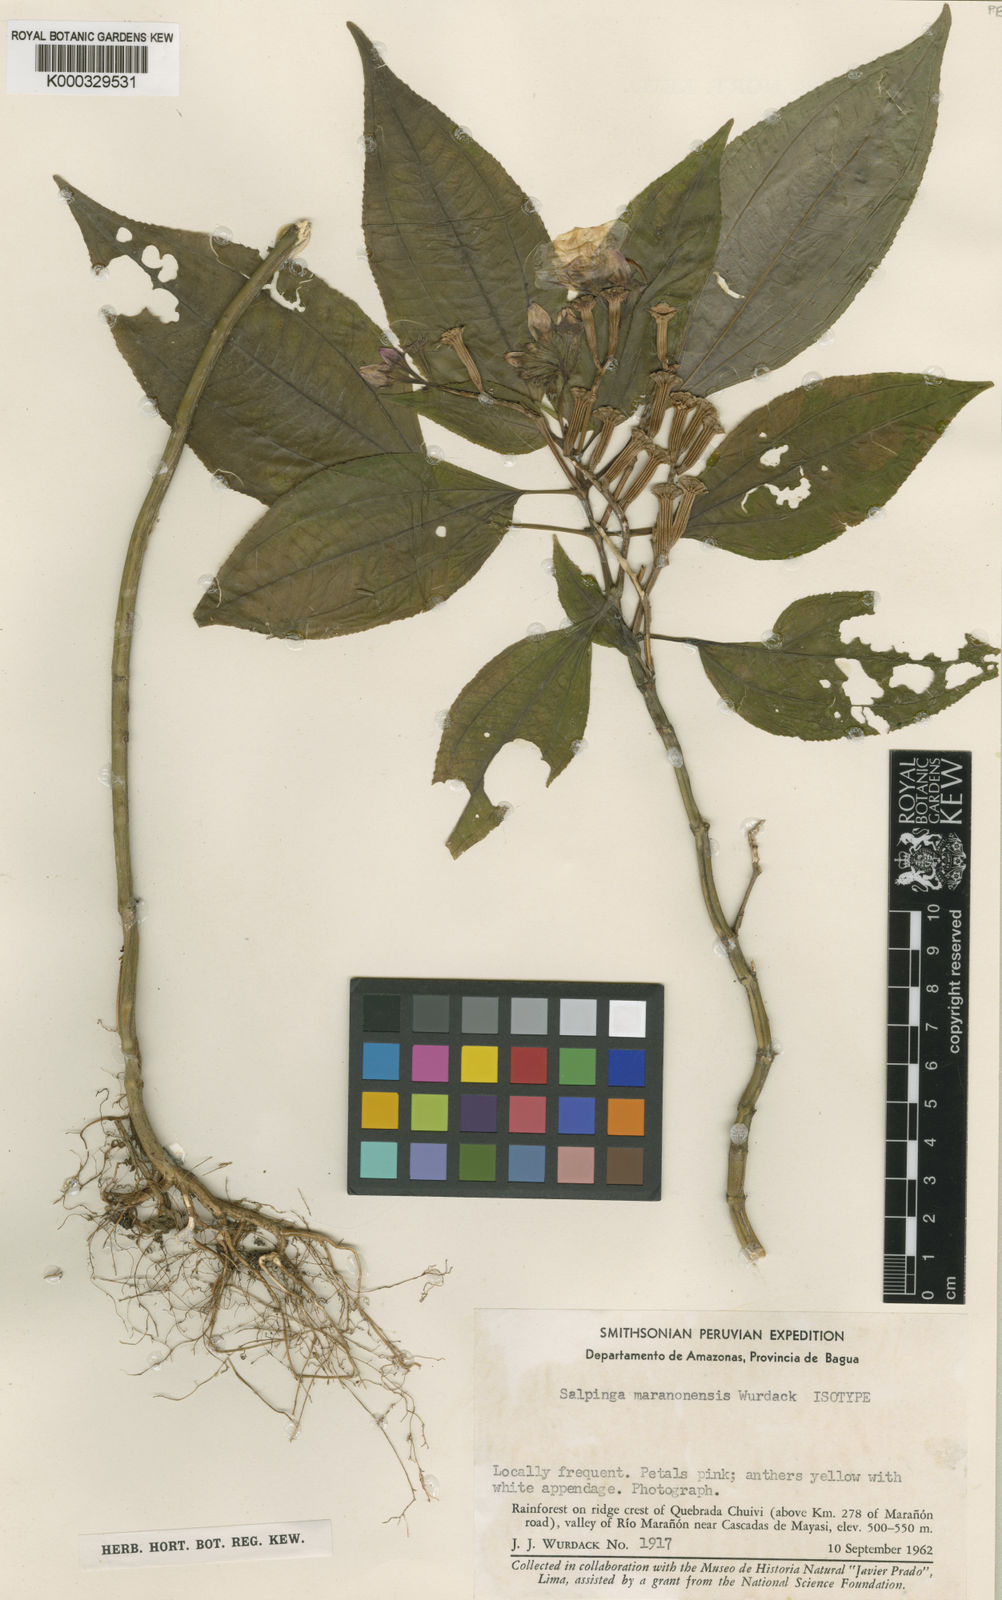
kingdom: Plantae
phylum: Tracheophyta
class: Magnoliopsida
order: Myrtales
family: Melastomataceae
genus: Salpinga
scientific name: Salpinga maranonensis
